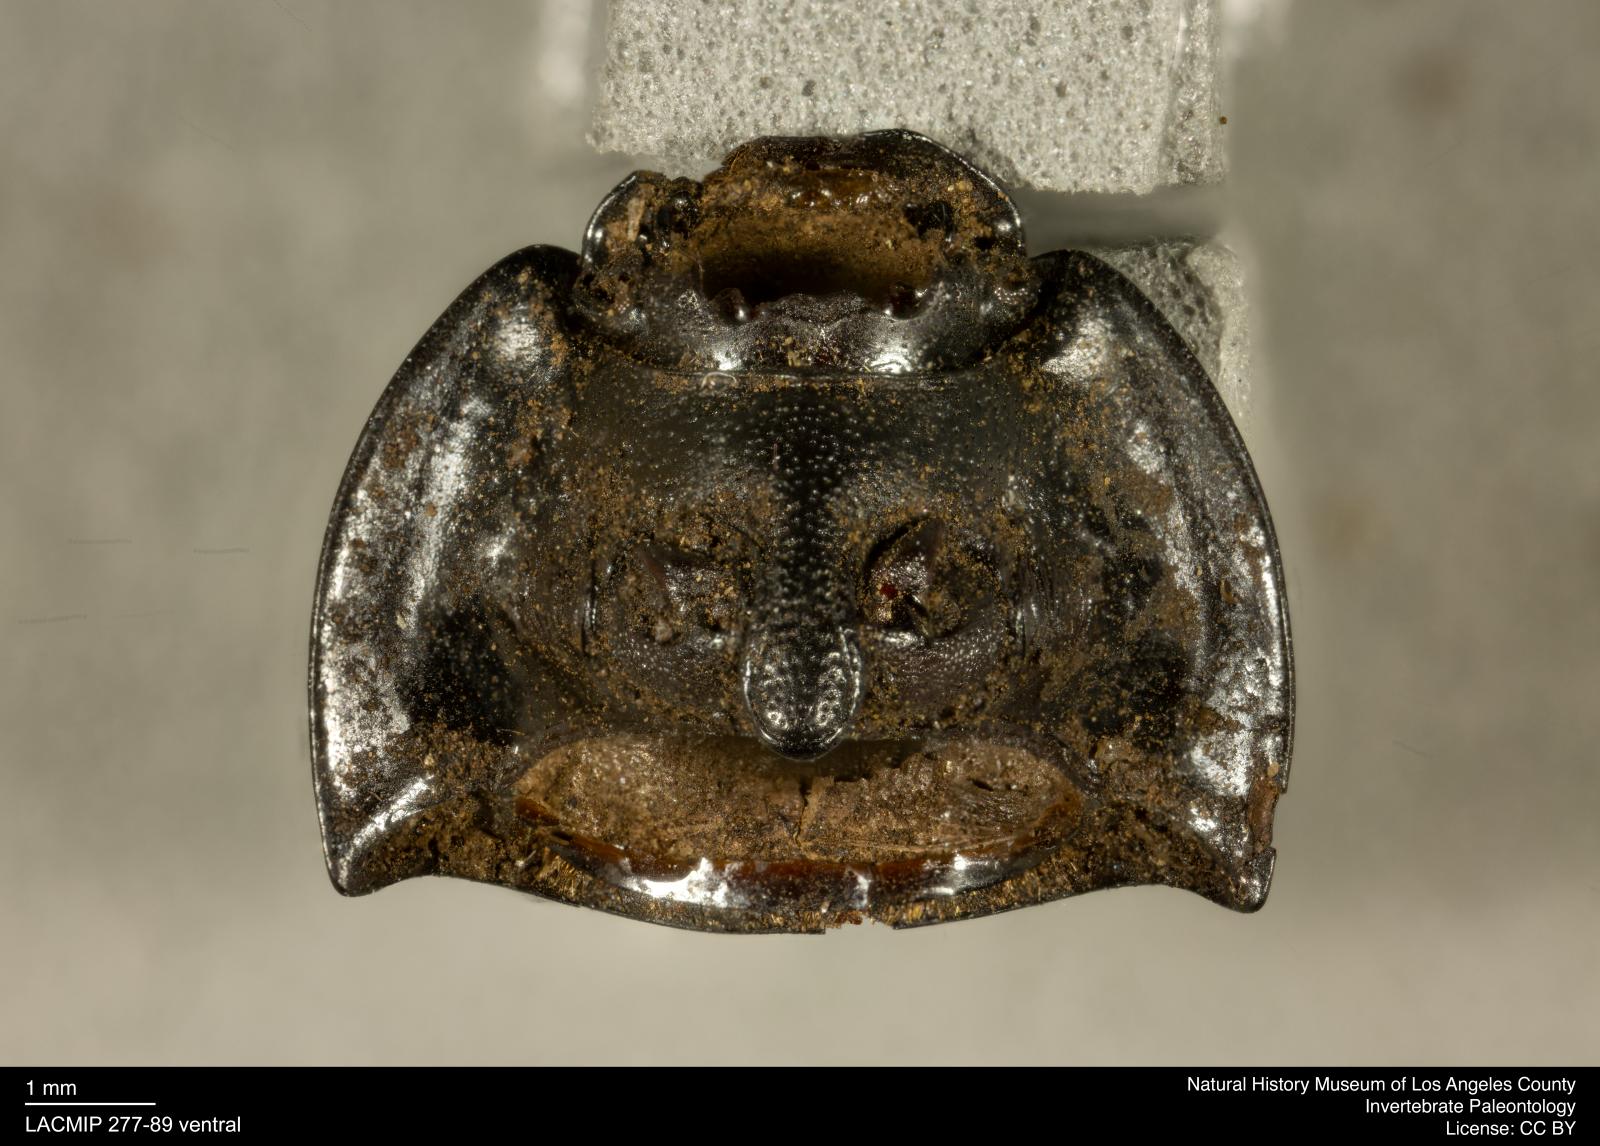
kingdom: Animalia
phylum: Arthropoda
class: Insecta
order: Coleoptera
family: Tenebrionidae
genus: Coniontis
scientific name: Coniontis abdominalis
